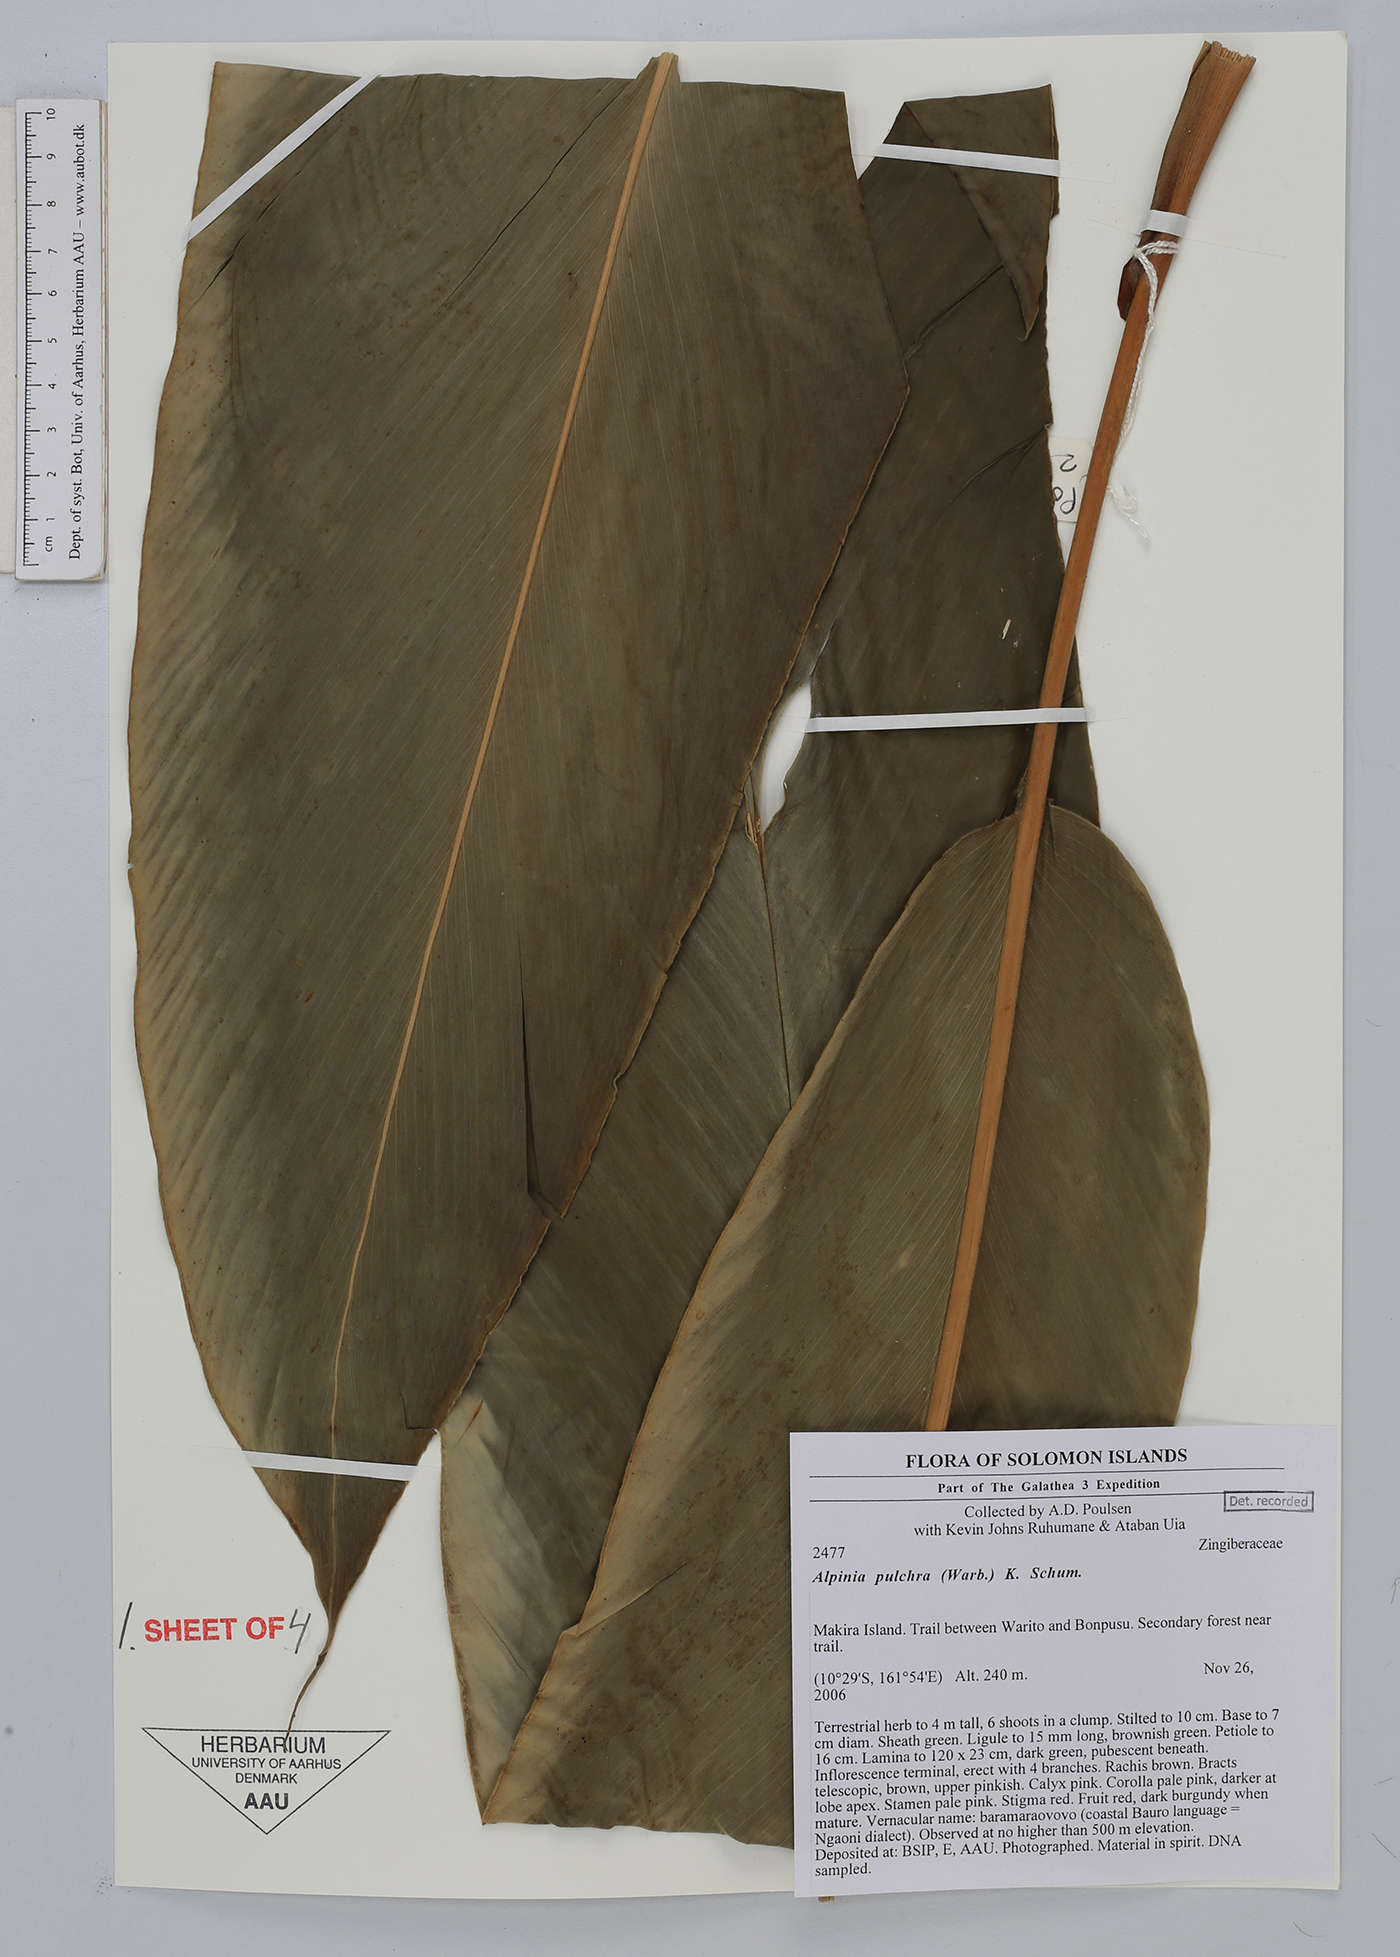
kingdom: Plantae
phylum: Tracheophyta
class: Liliopsida
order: Zingiberales
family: Zingiberaceae
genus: Alpinia
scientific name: Alpinia pulchra
